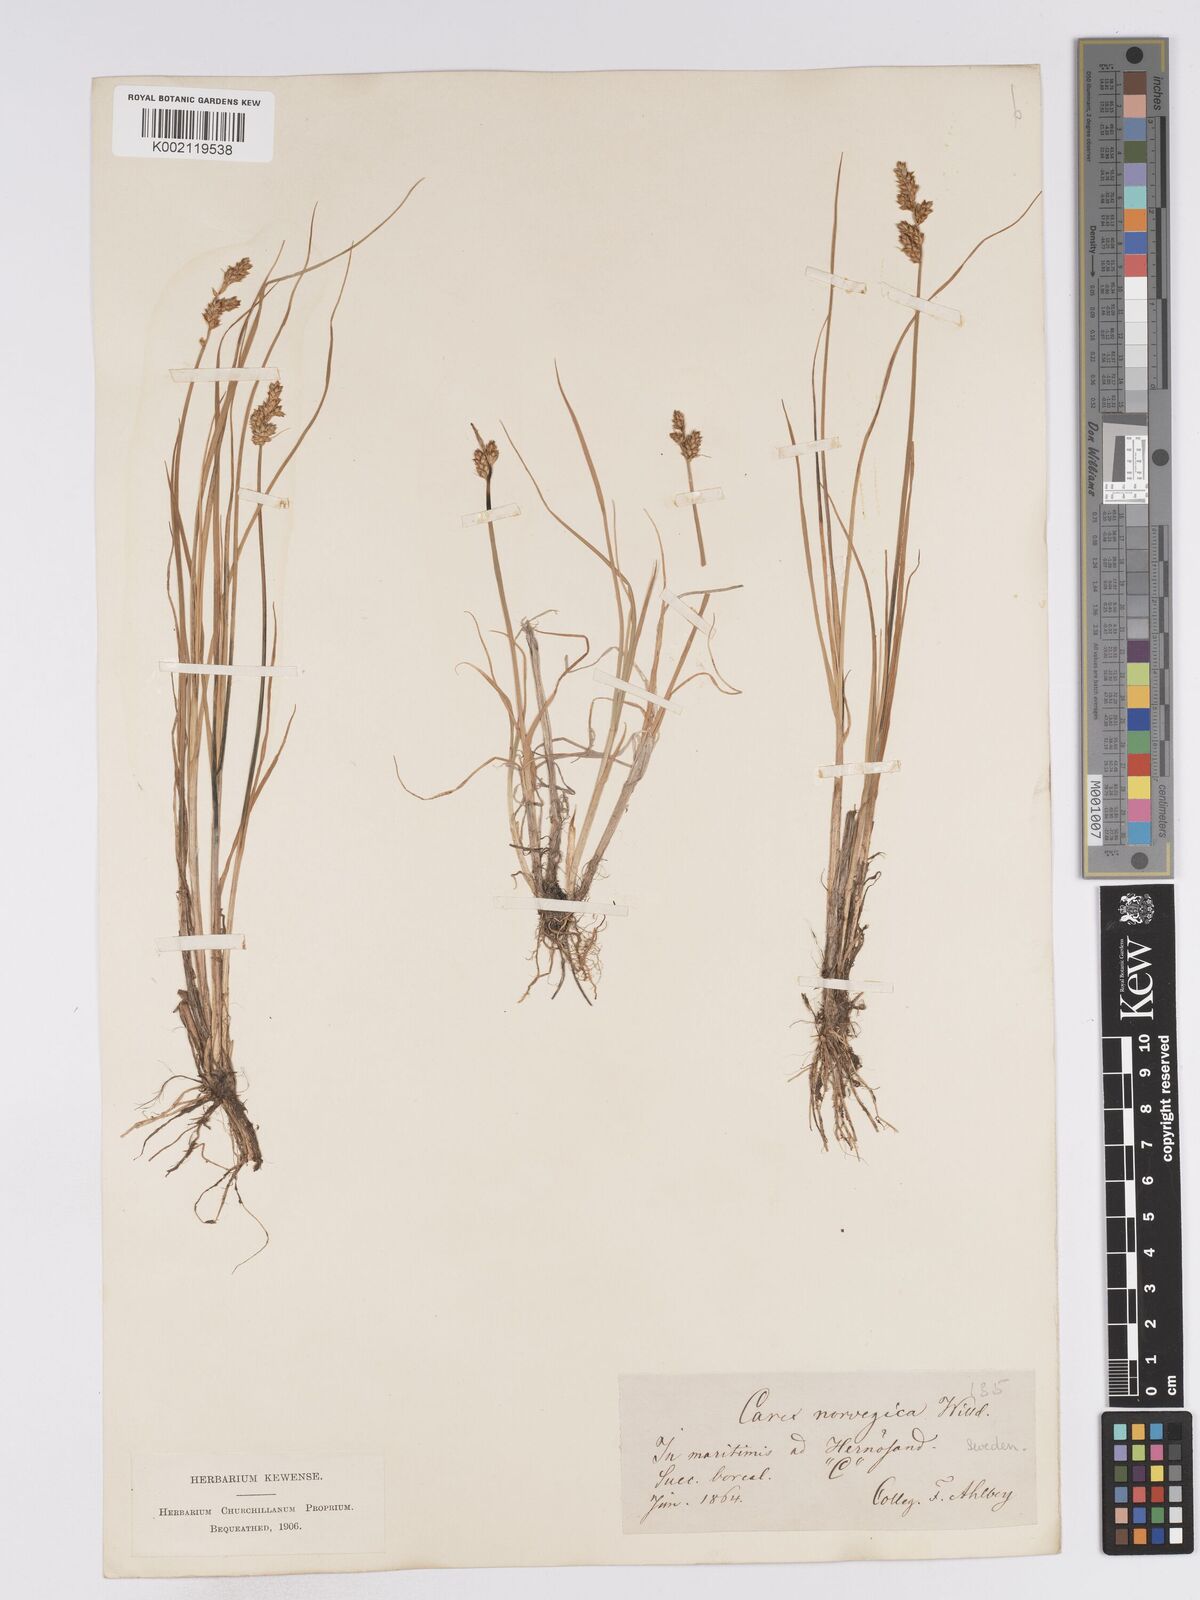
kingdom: Plantae
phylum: Tracheophyta
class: Liliopsida
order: Poales
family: Cyperaceae
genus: Carex
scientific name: Carex mackenziei
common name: Mackenzie's sedge
